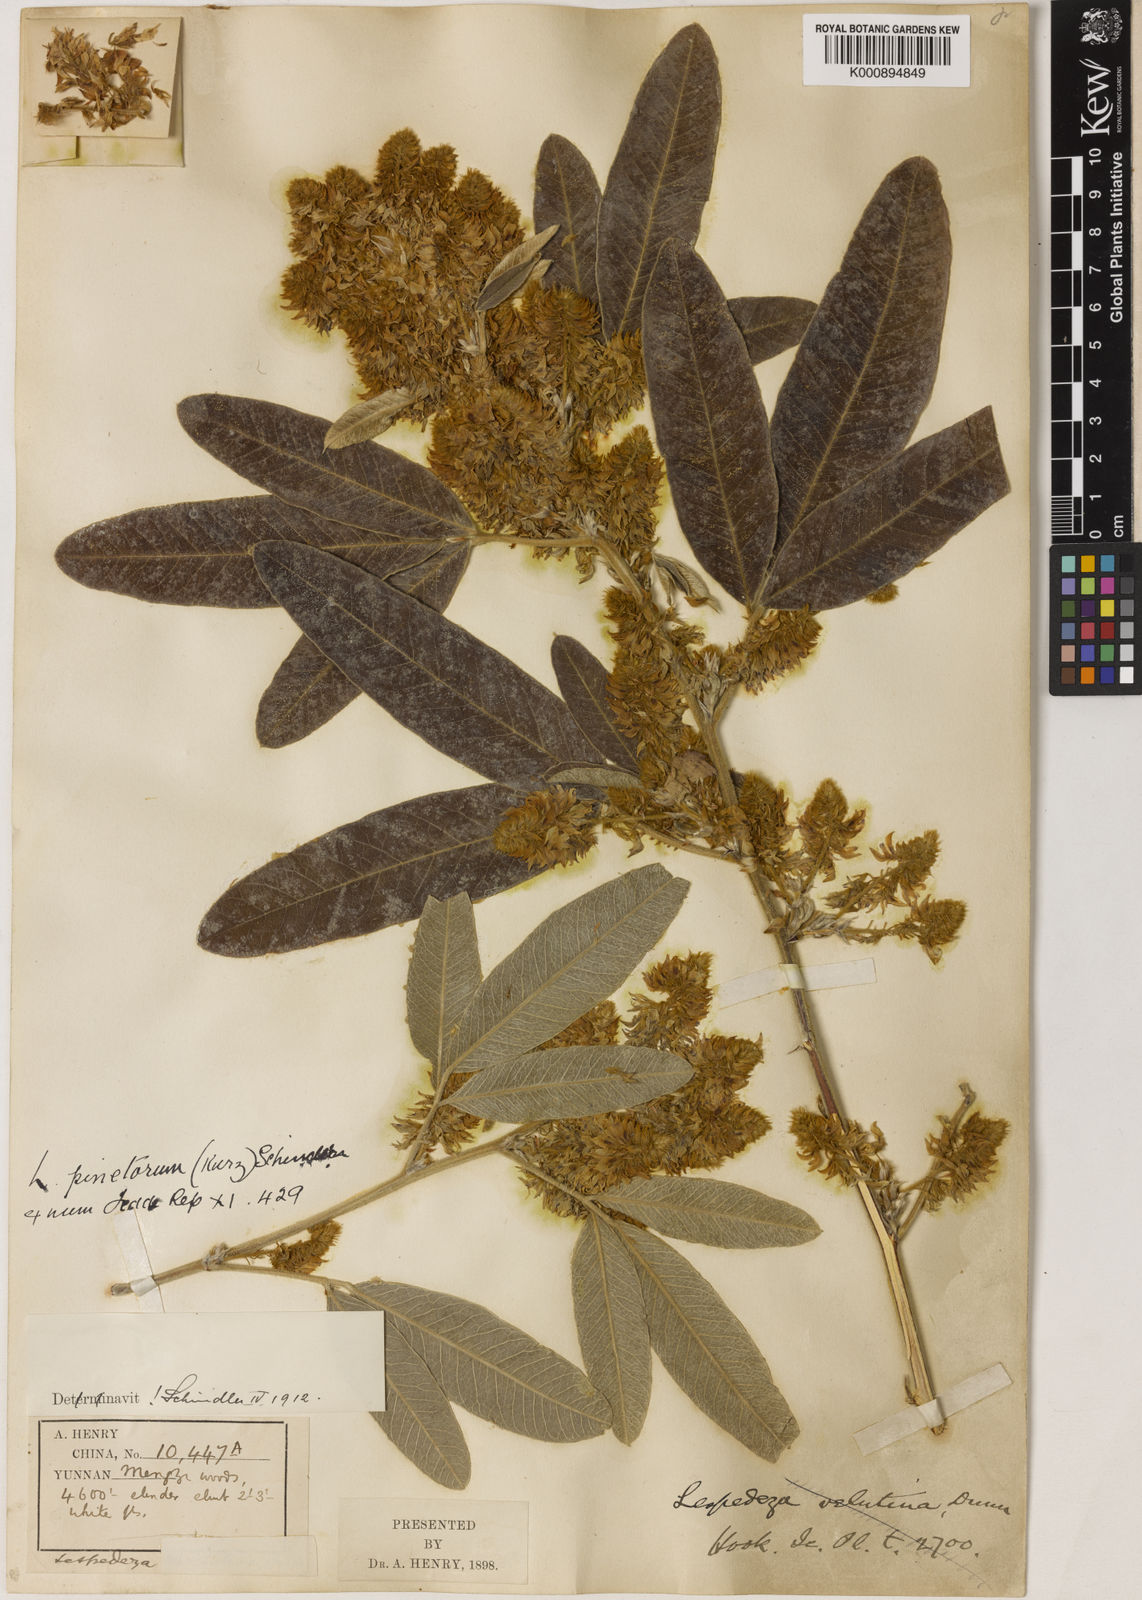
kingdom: Plantae
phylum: Tracheophyta
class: Magnoliopsida
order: Fabales
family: Fabaceae
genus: Campylotropis
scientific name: Campylotropis pinetorum
